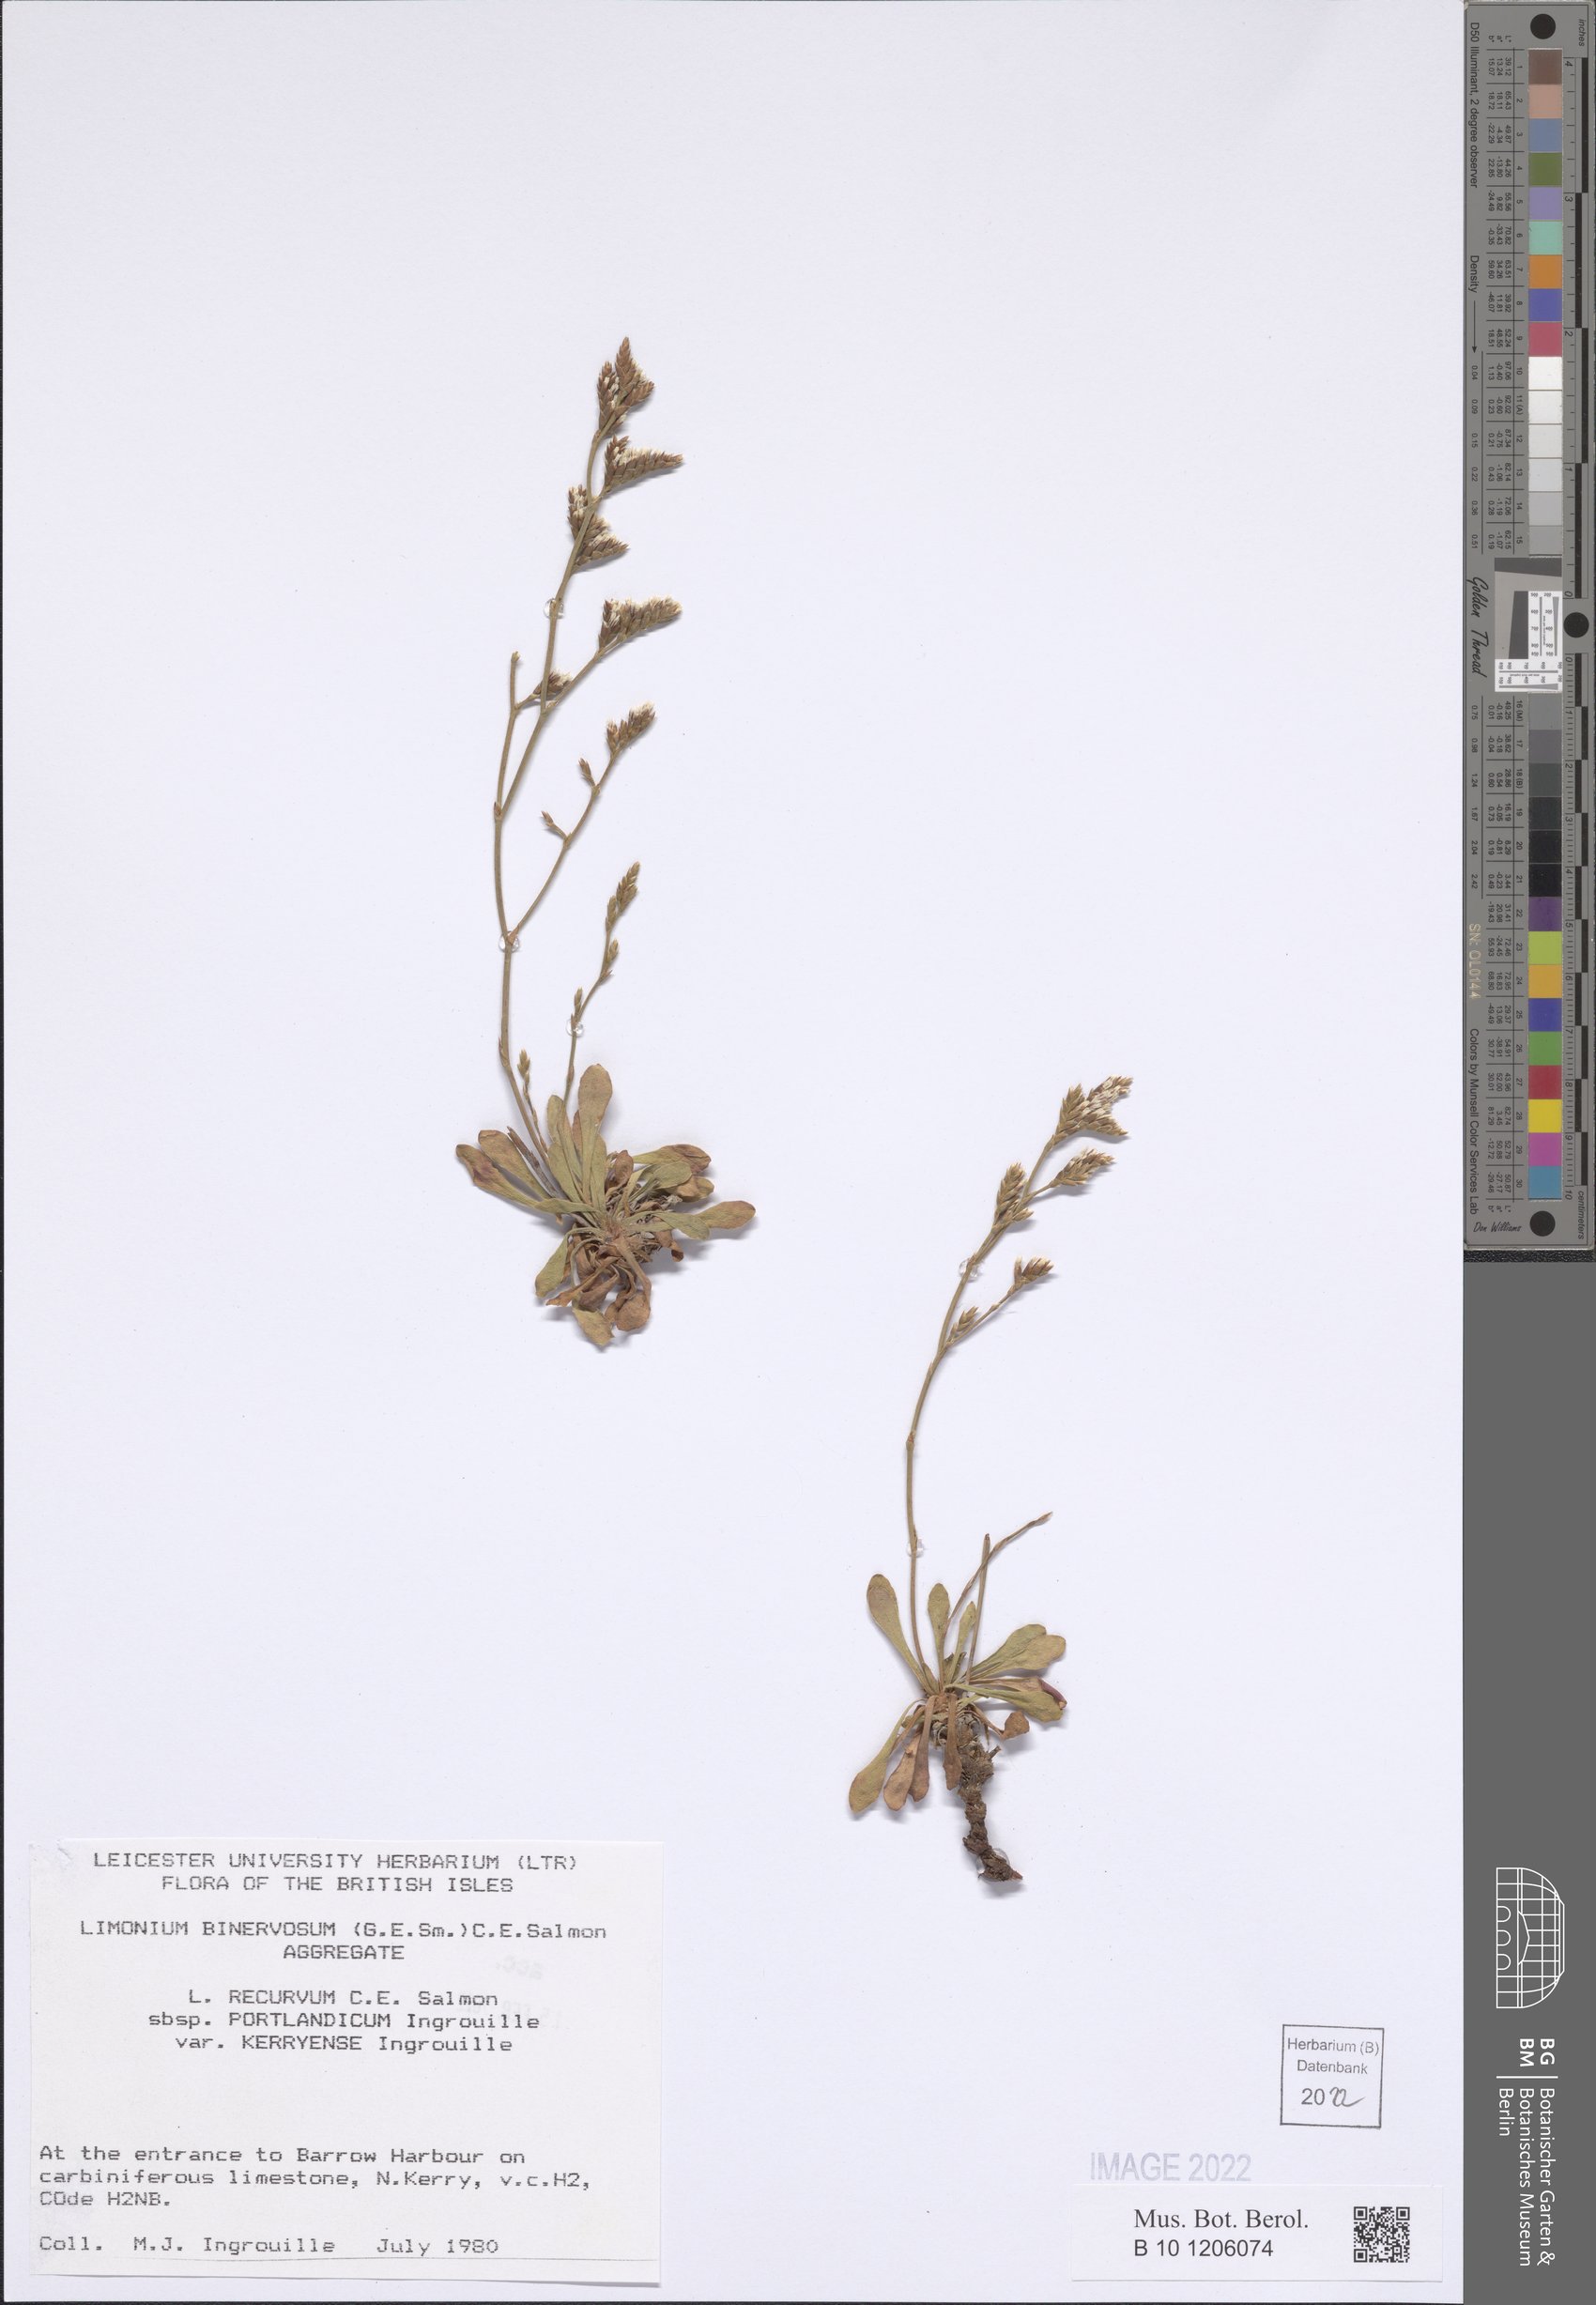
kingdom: Plantae
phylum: Tracheophyta
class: Magnoliopsida
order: Caryophyllales
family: Plumbaginaceae
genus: Limonium
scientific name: Limonium recurvum
